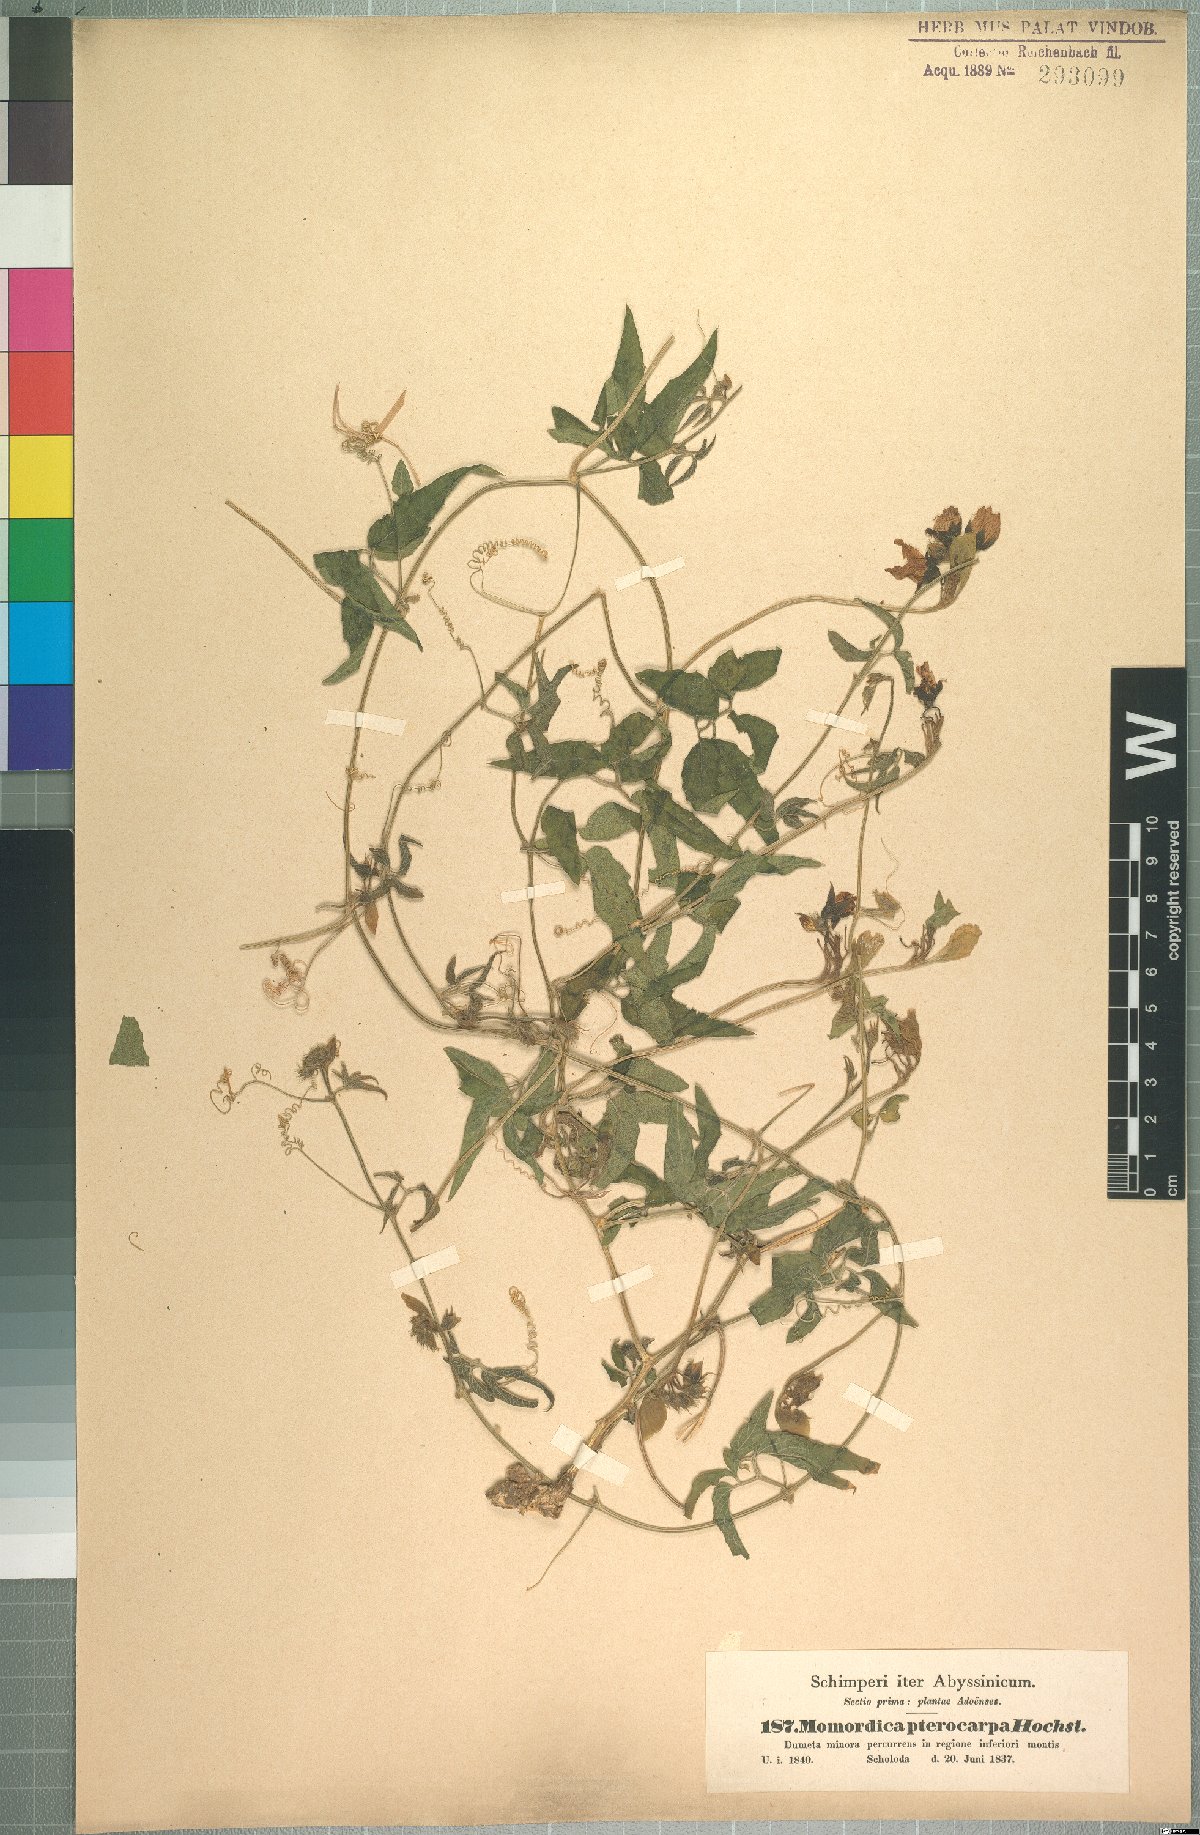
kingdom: Plantae
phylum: Tracheophyta
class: Magnoliopsida
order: Cucurbitales
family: Cucurbitaceae
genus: Momordica
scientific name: Momordica pterocarpa
